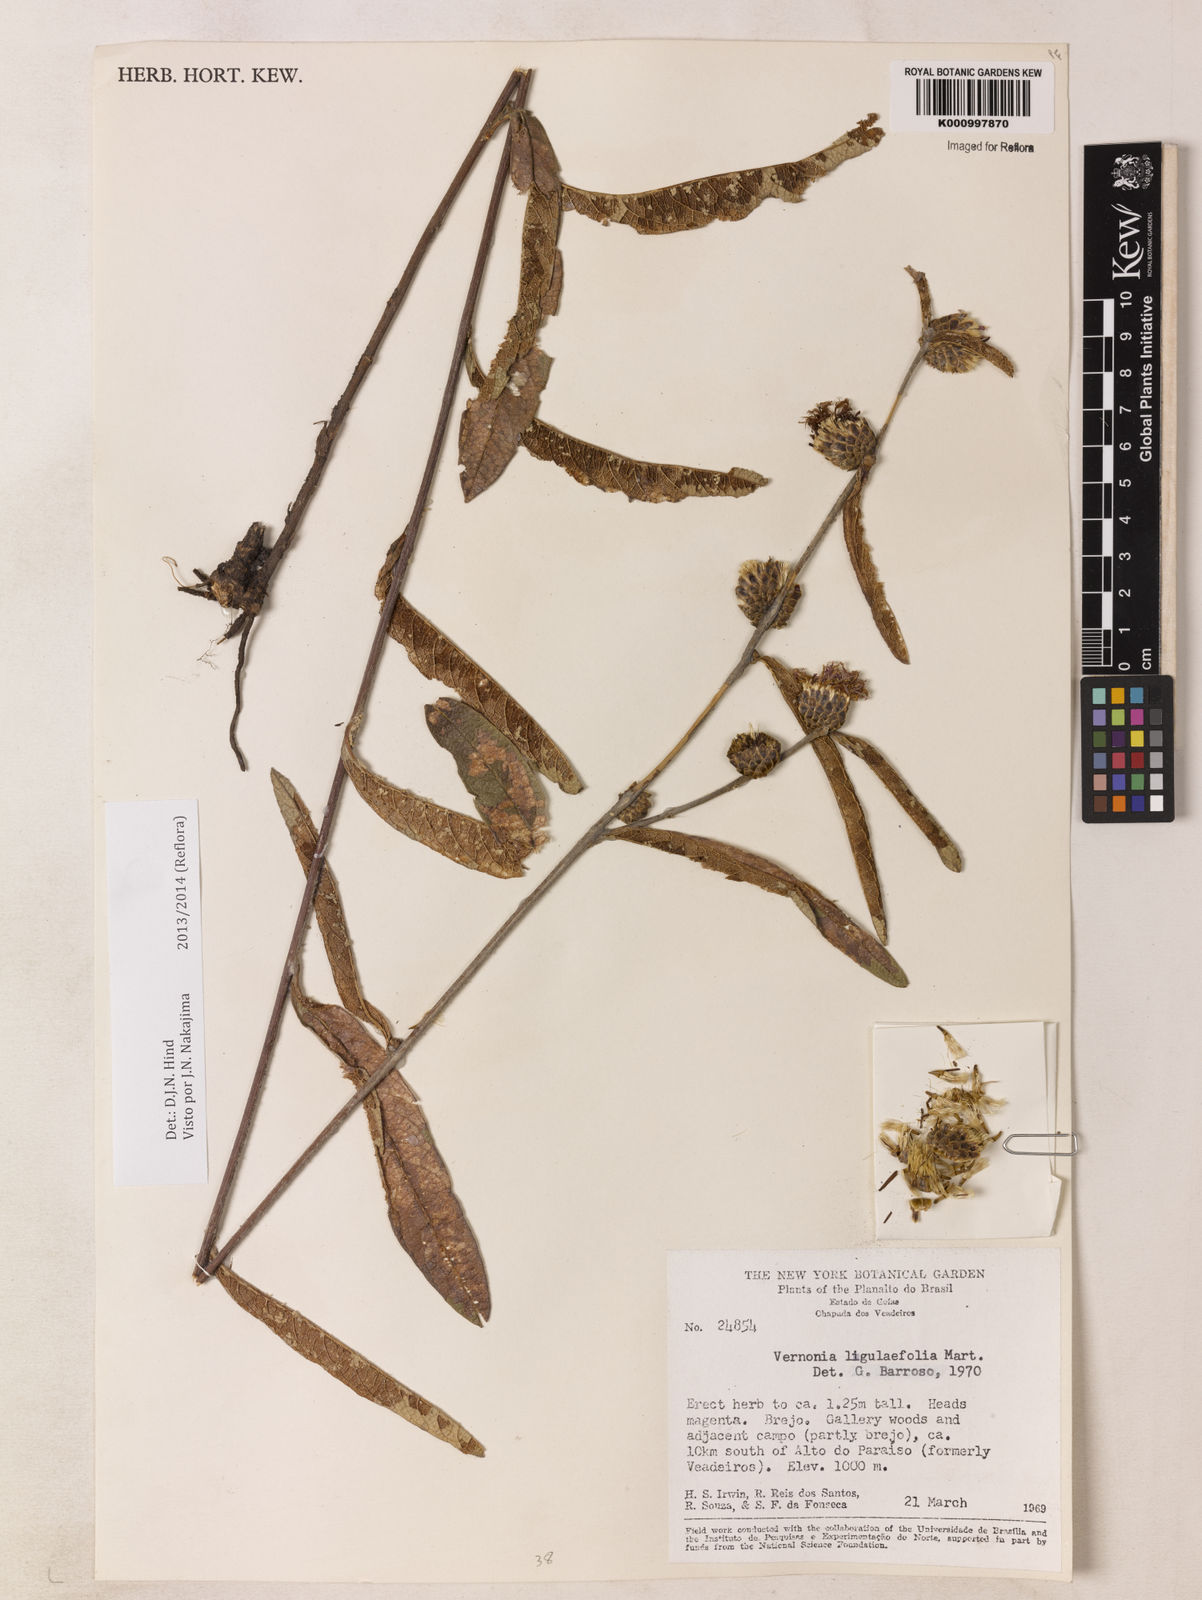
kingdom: Plantae
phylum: Tracheophyta
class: Magnoliopsida
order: Asterales
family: Asteraceae
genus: Lessingianthus
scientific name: Lessingianthus ligulifolius
